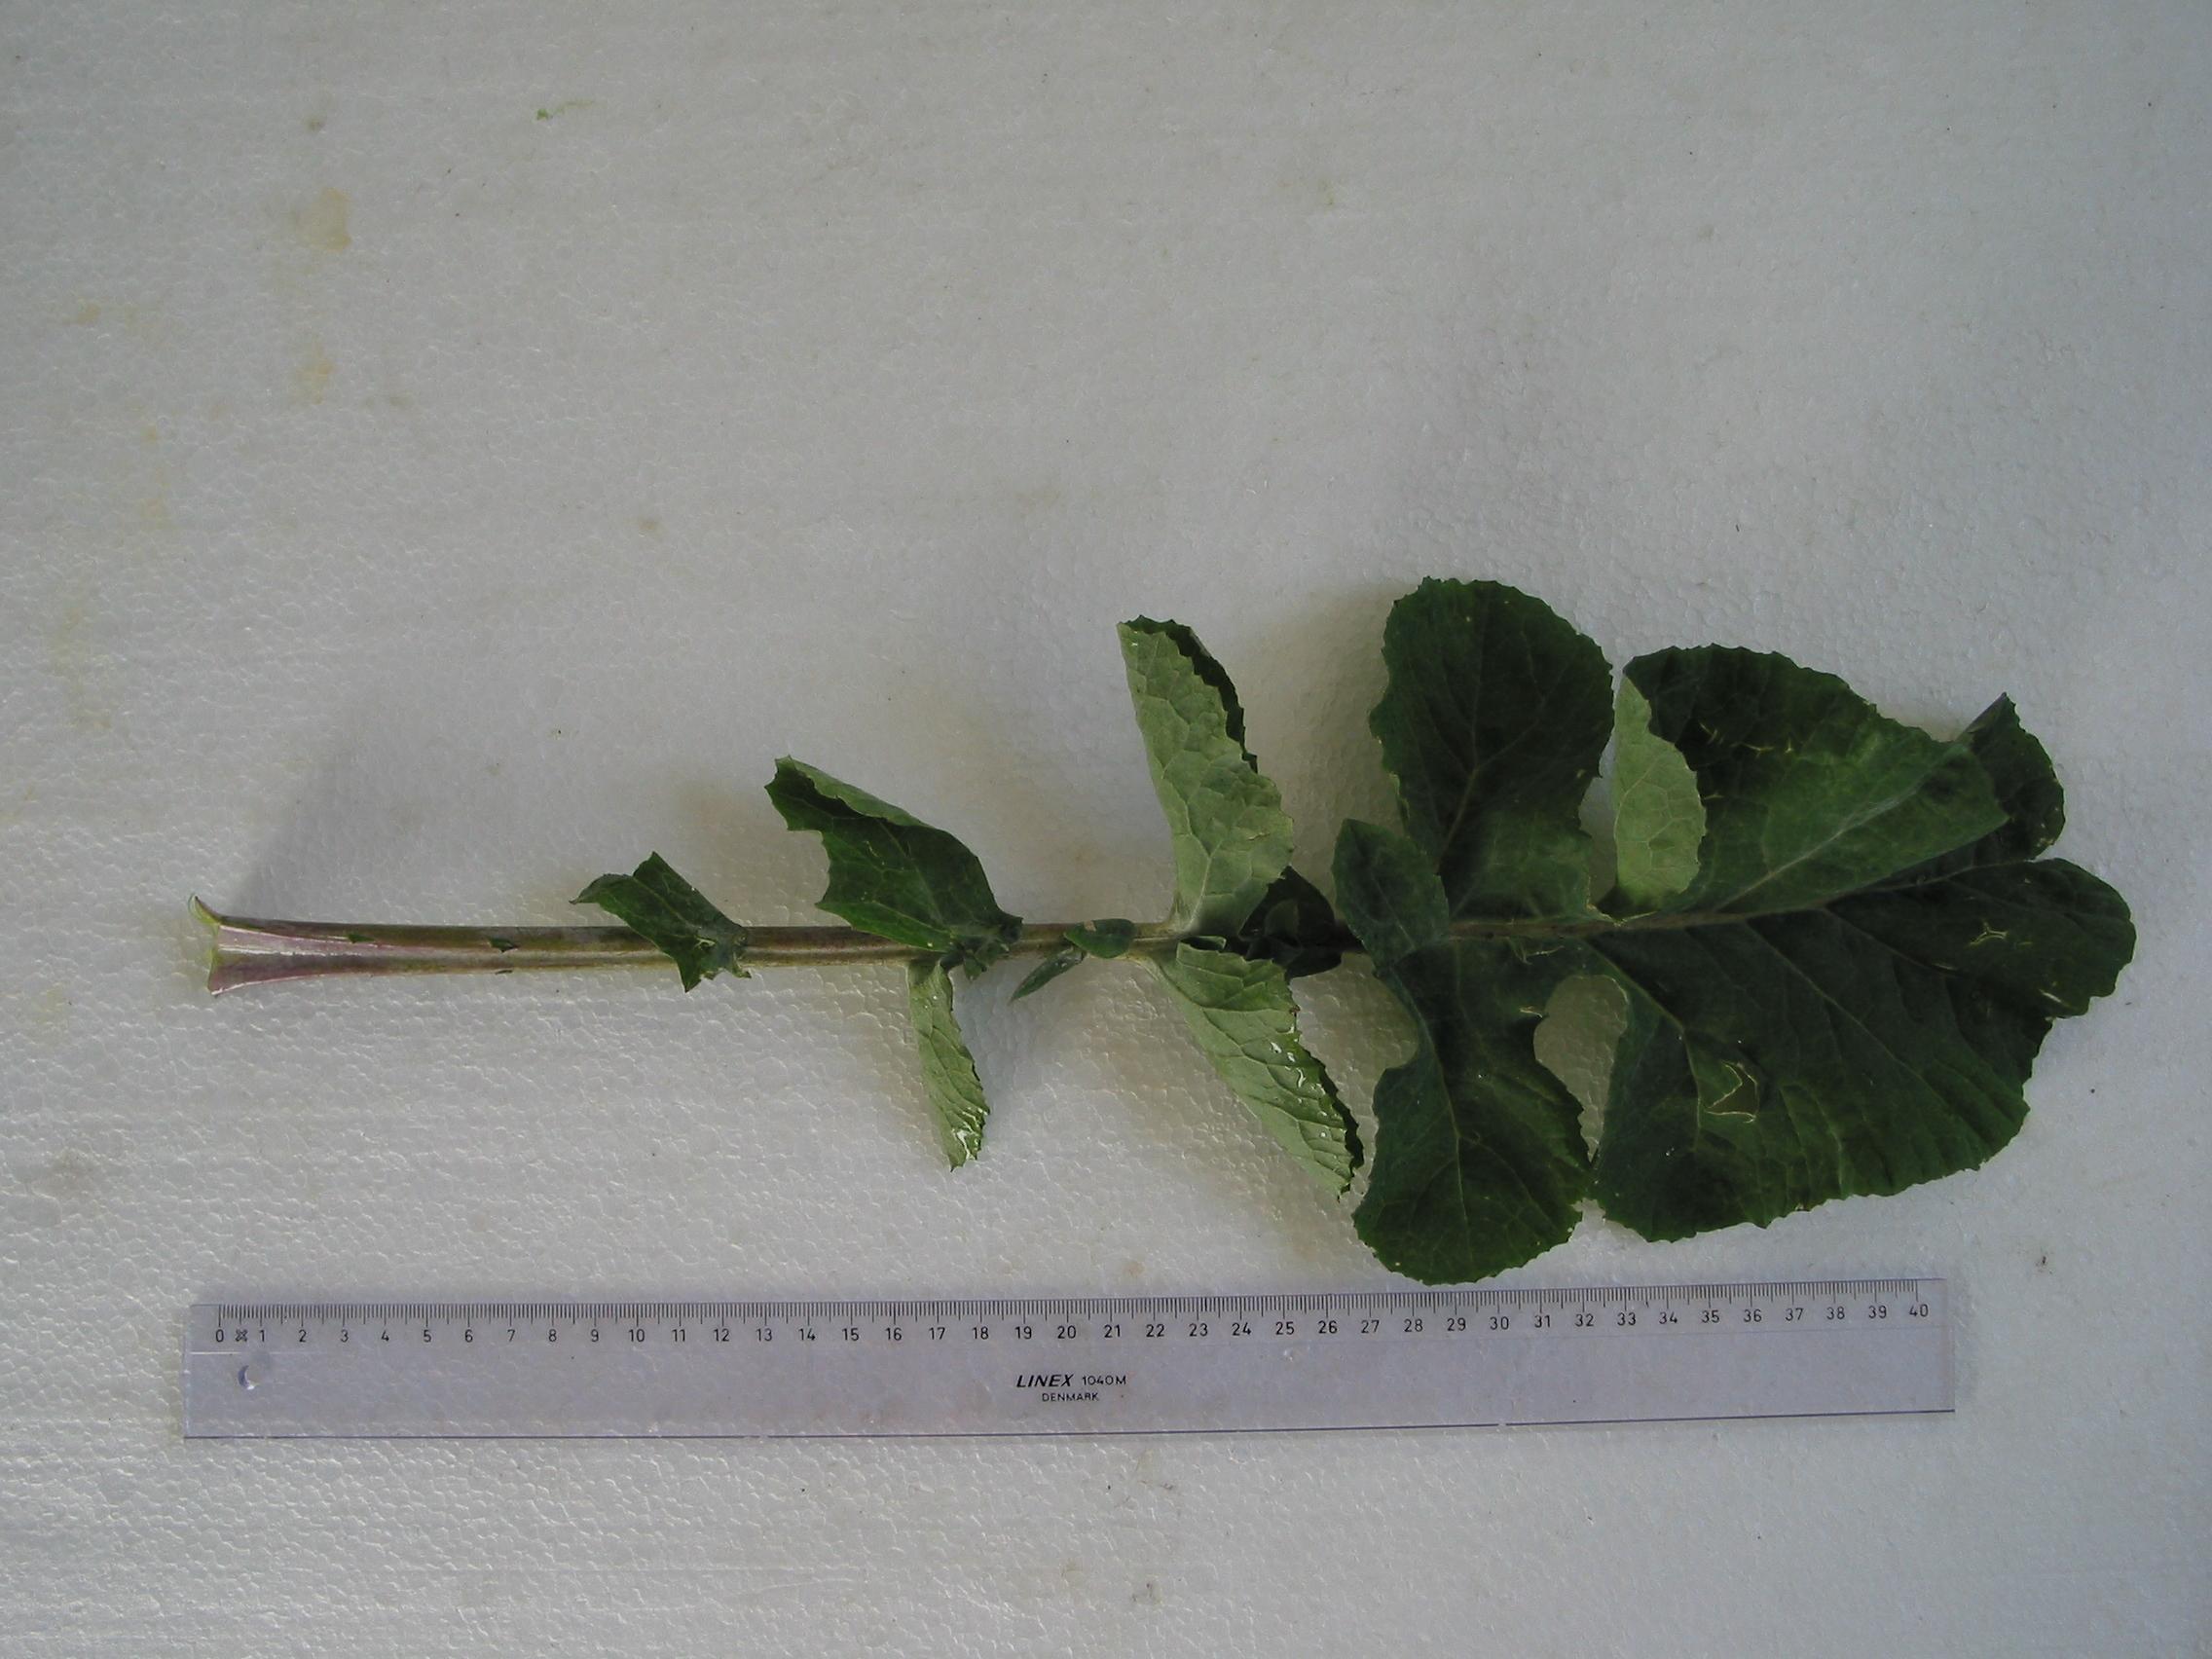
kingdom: Plantae
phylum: Tracheophyta
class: Magnoliopsida
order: Brassicales
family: Brassicaceae
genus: Brassica
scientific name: Brassica napus
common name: Rape
